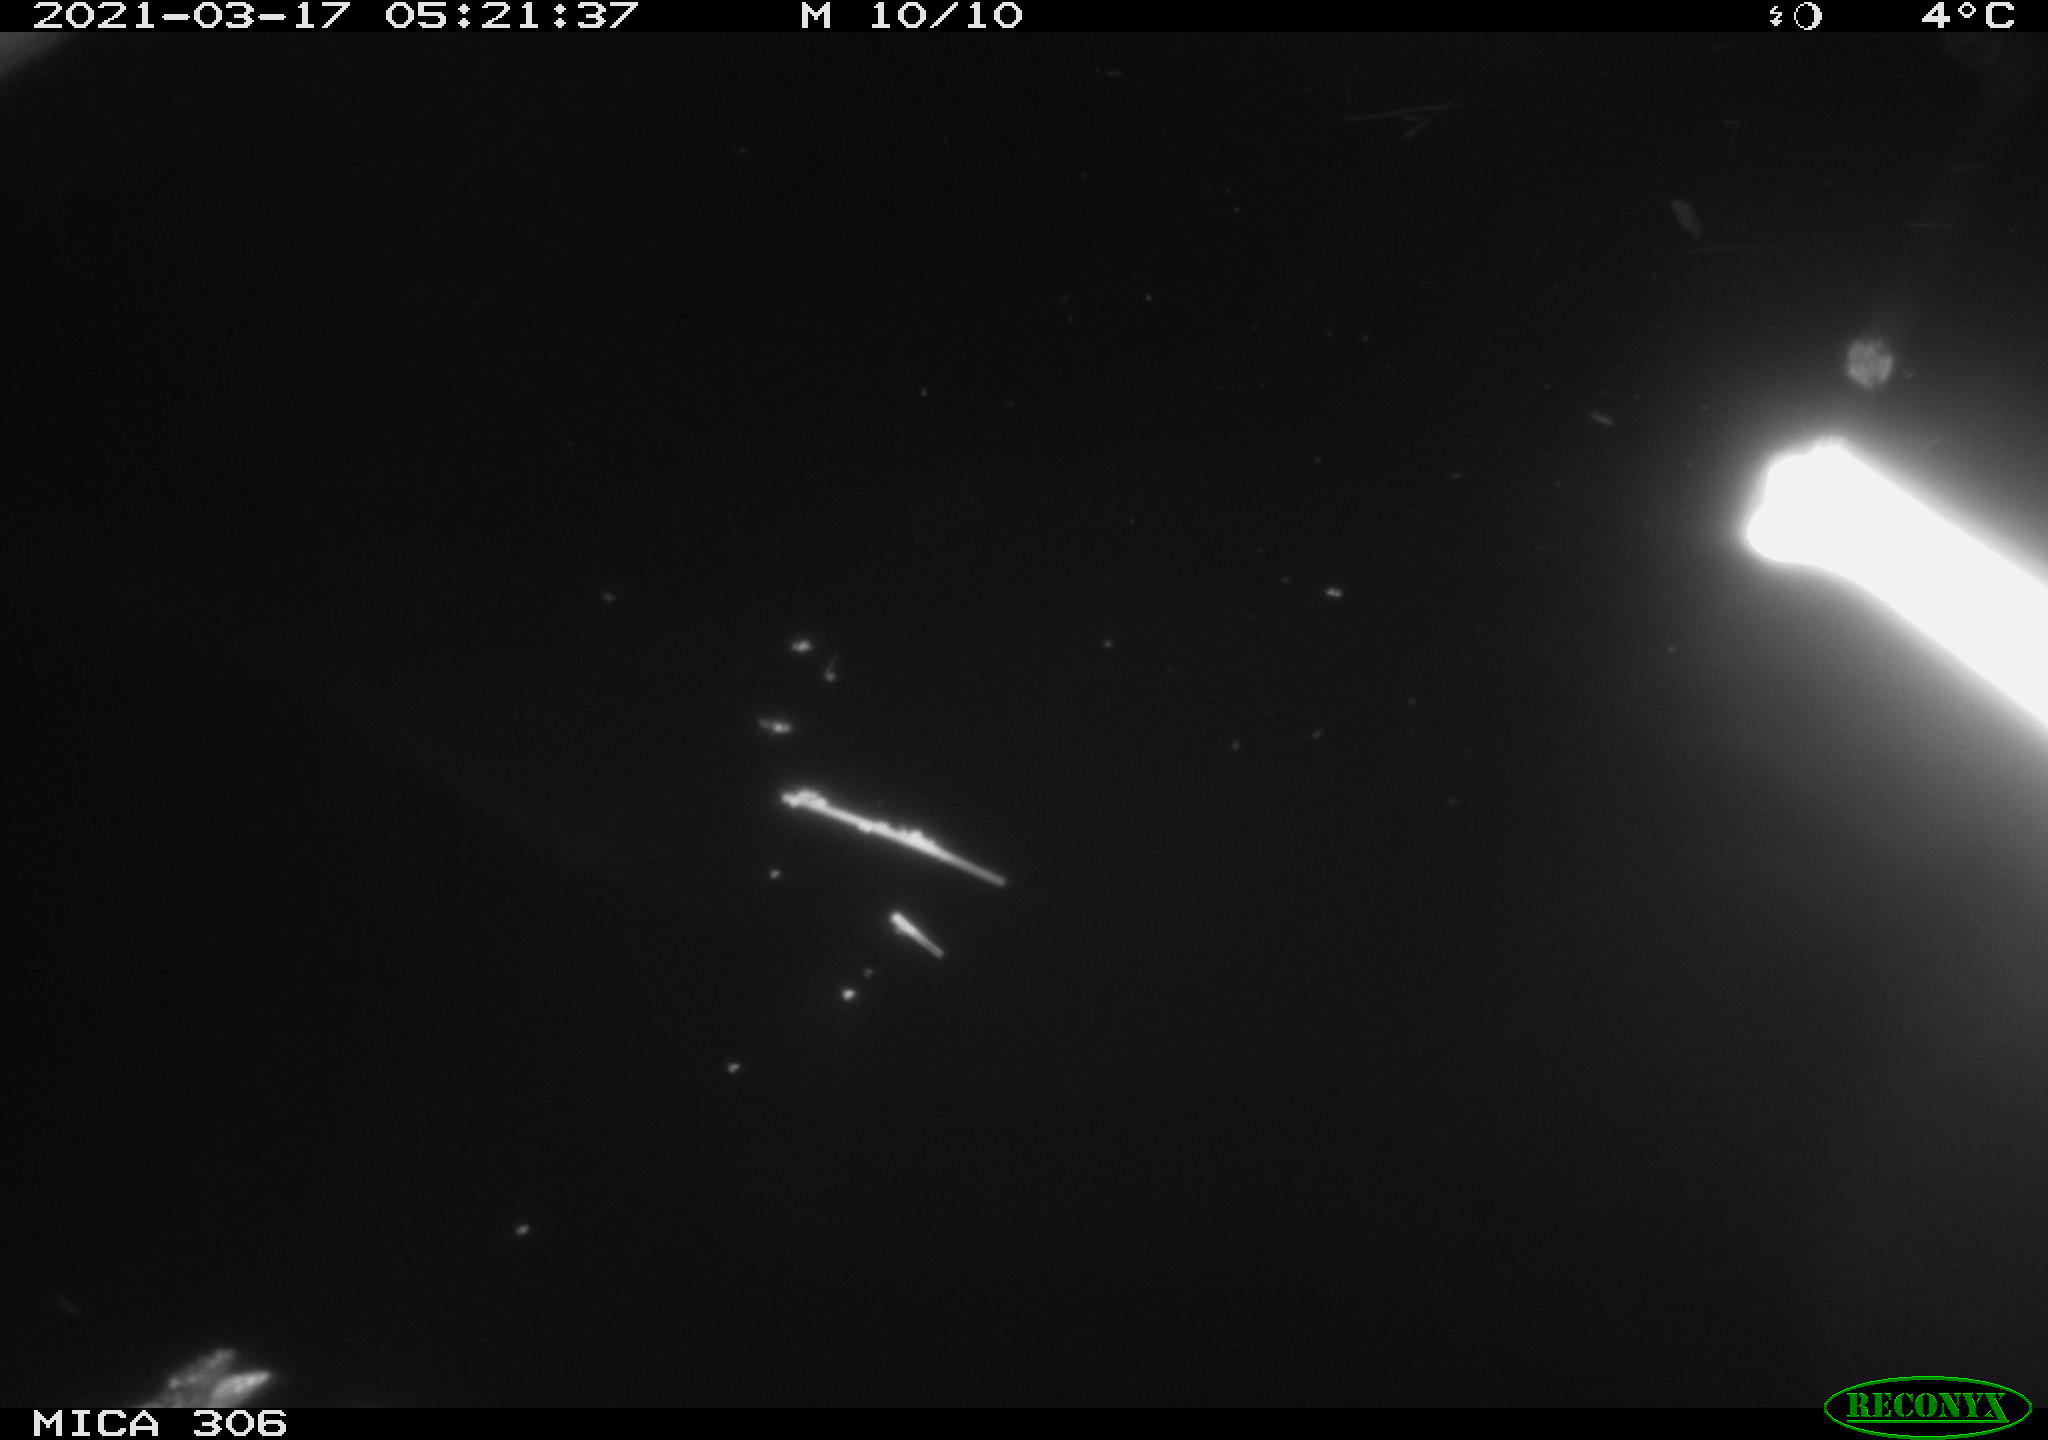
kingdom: Animalia
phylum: Chordata
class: Aves
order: Anseriformes
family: Anatidae
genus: Anas
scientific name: Anas platyrhynchos
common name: Mallard
